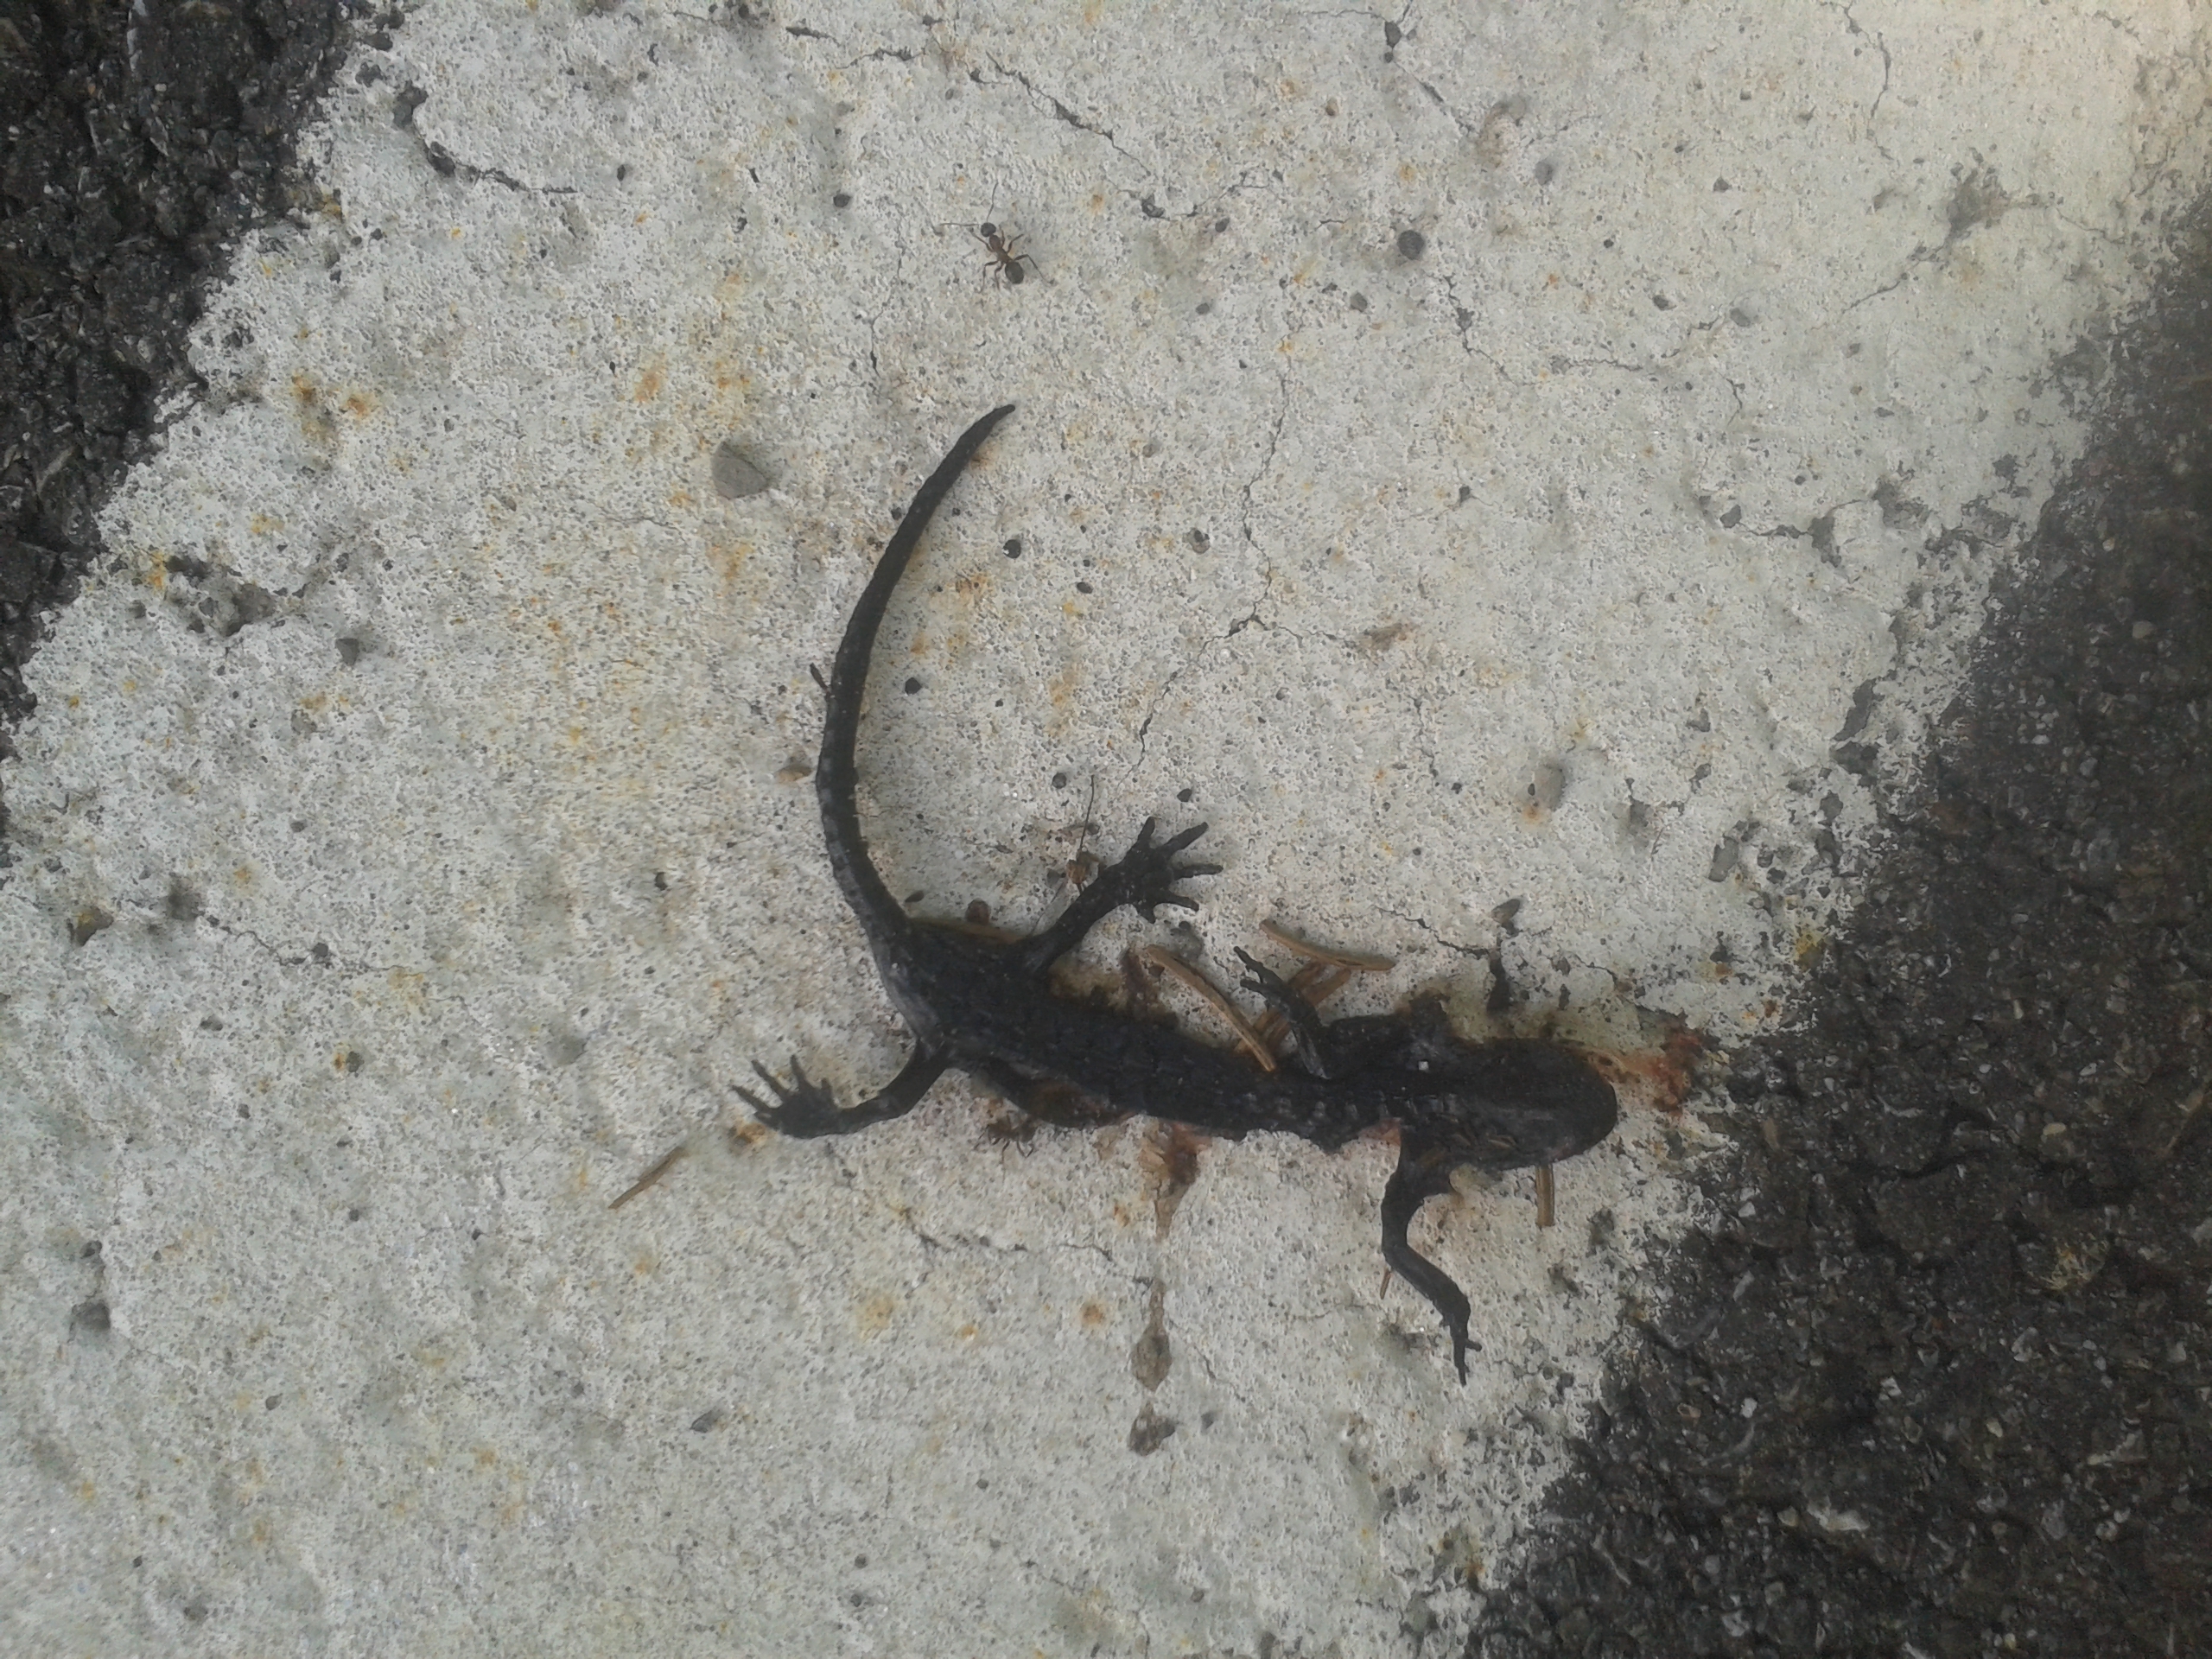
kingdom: Animalia
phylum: Chordata
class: Amphibia
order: Caudata
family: Salamandridae
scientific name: Salamandridae
